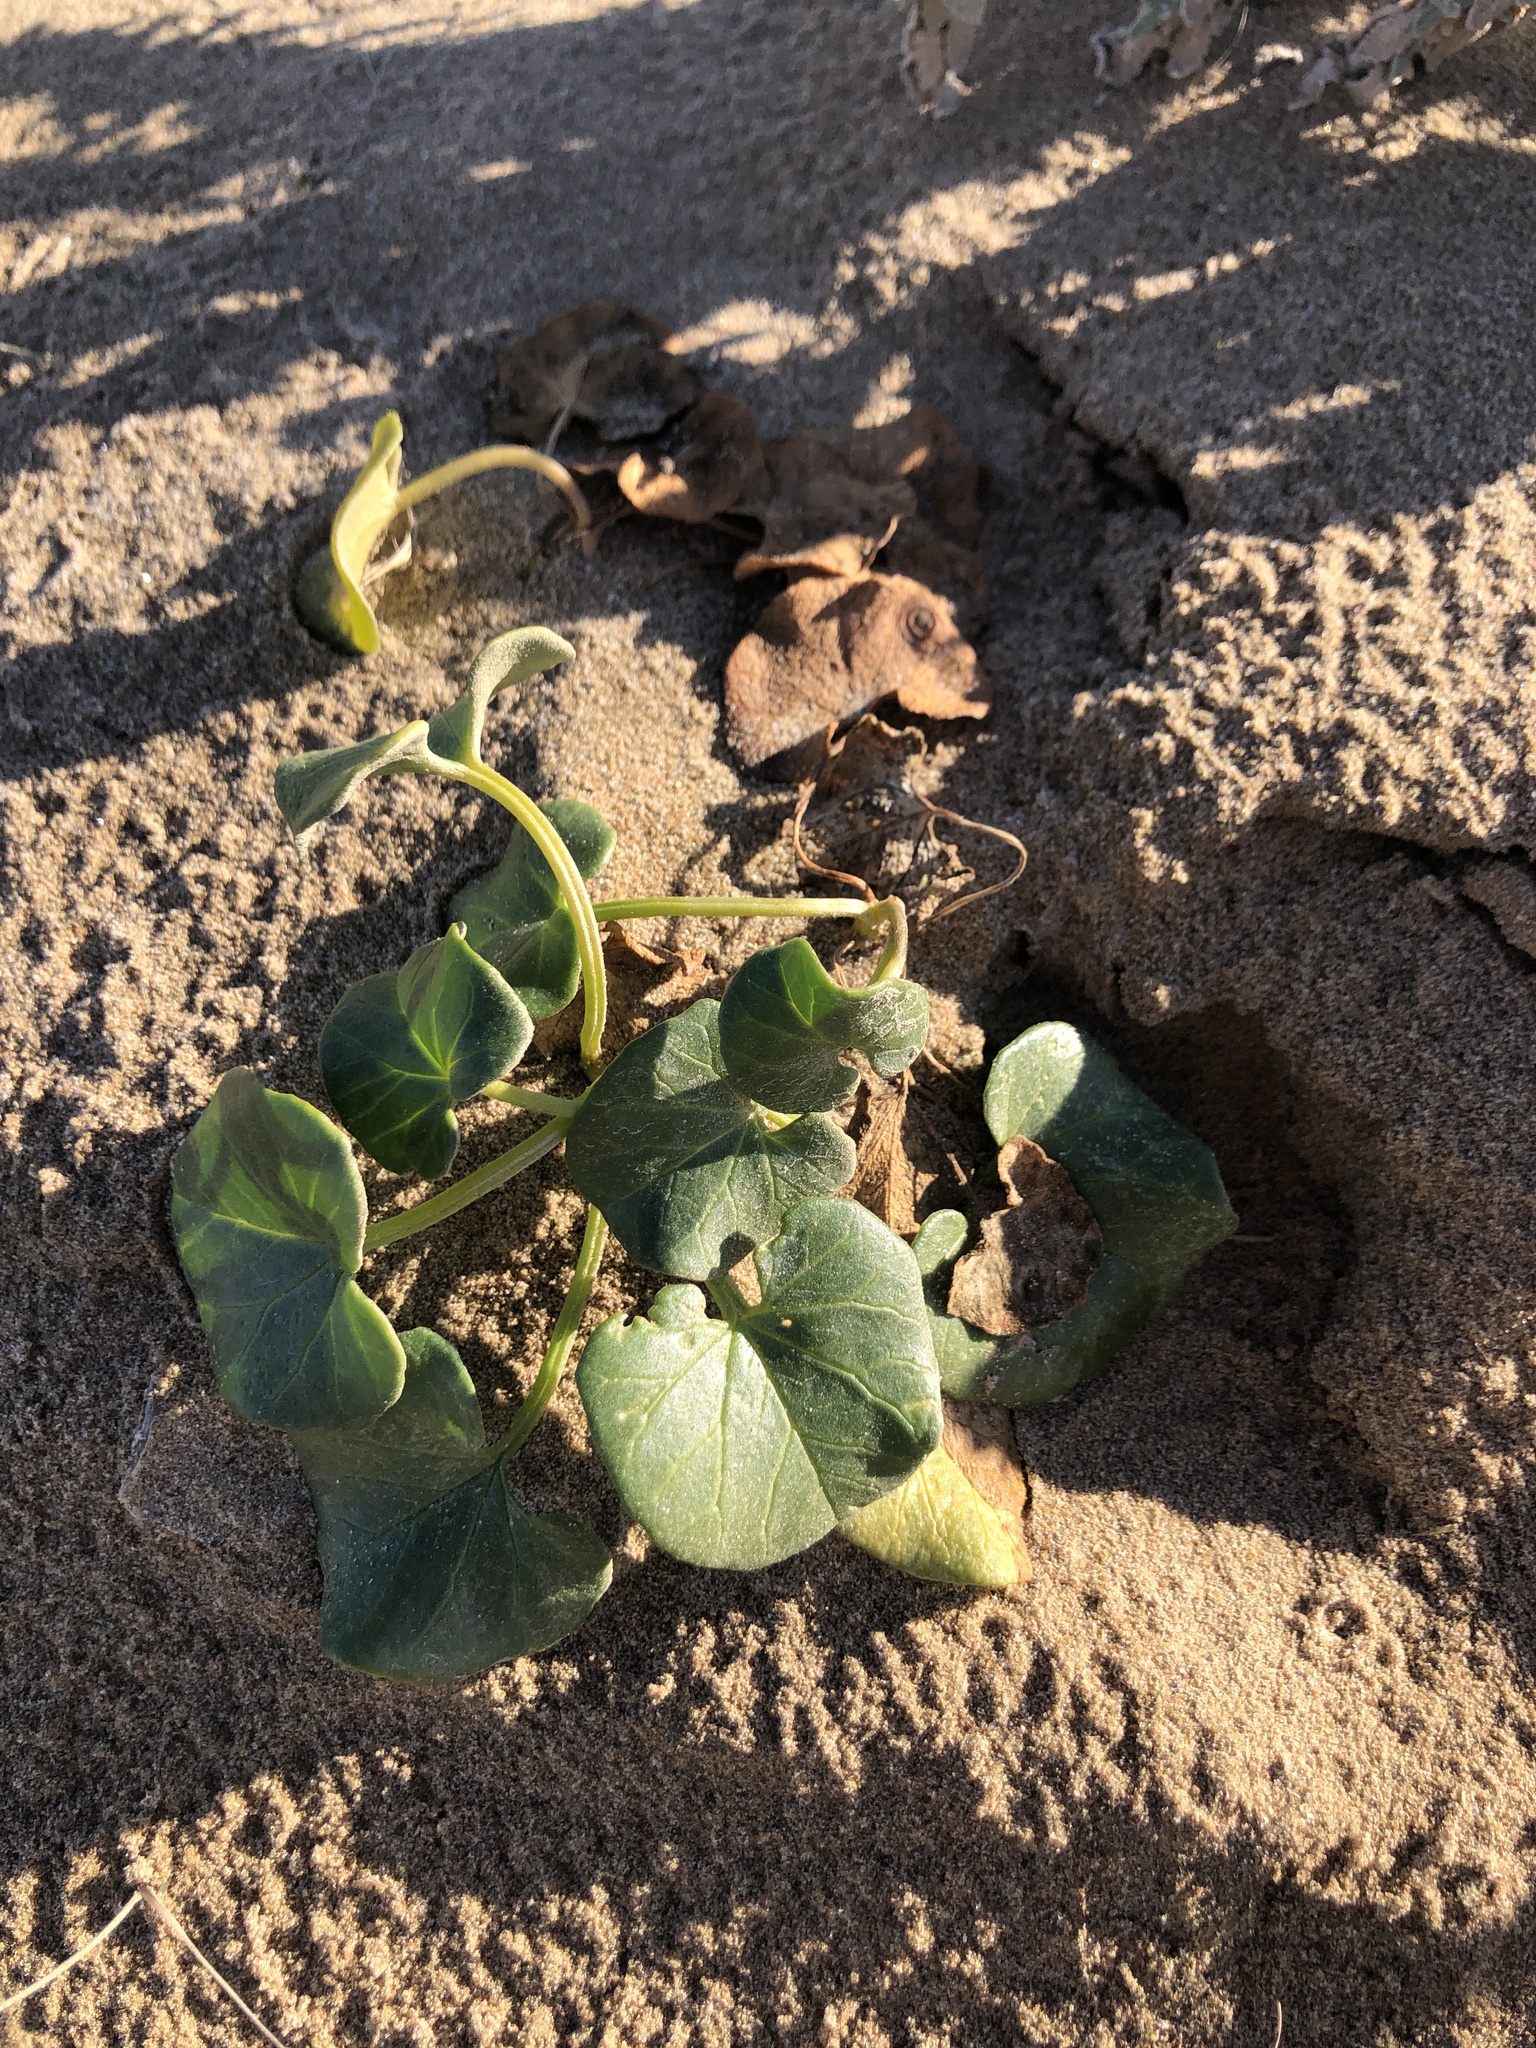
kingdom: Plantae
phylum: Tracheophyta
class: Magnoliopsida
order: Solanales
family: Convolvulaceae
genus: Calystegia
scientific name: Calystegia soldanella
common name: Sea bindweed
